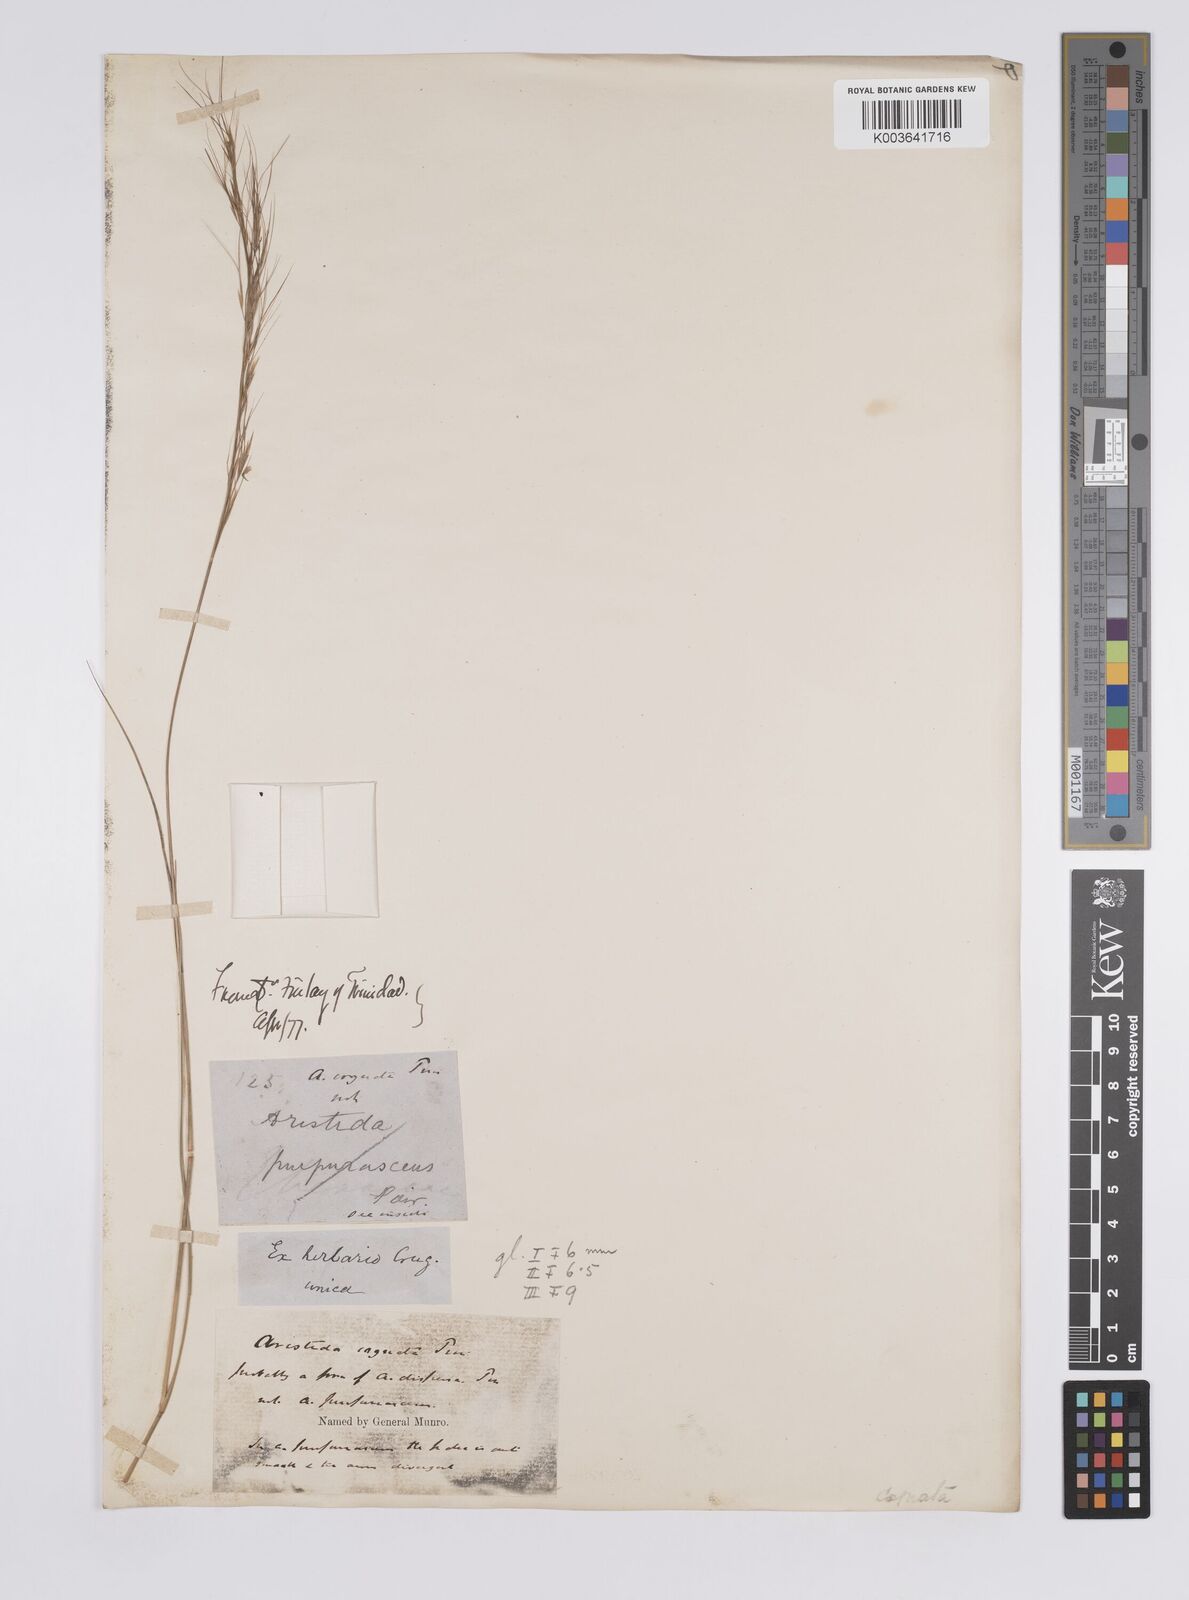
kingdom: Plantae
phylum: Tracheophyta
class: Liliopsida
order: Poales
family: Poaceae
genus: Aristida
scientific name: Aristida
